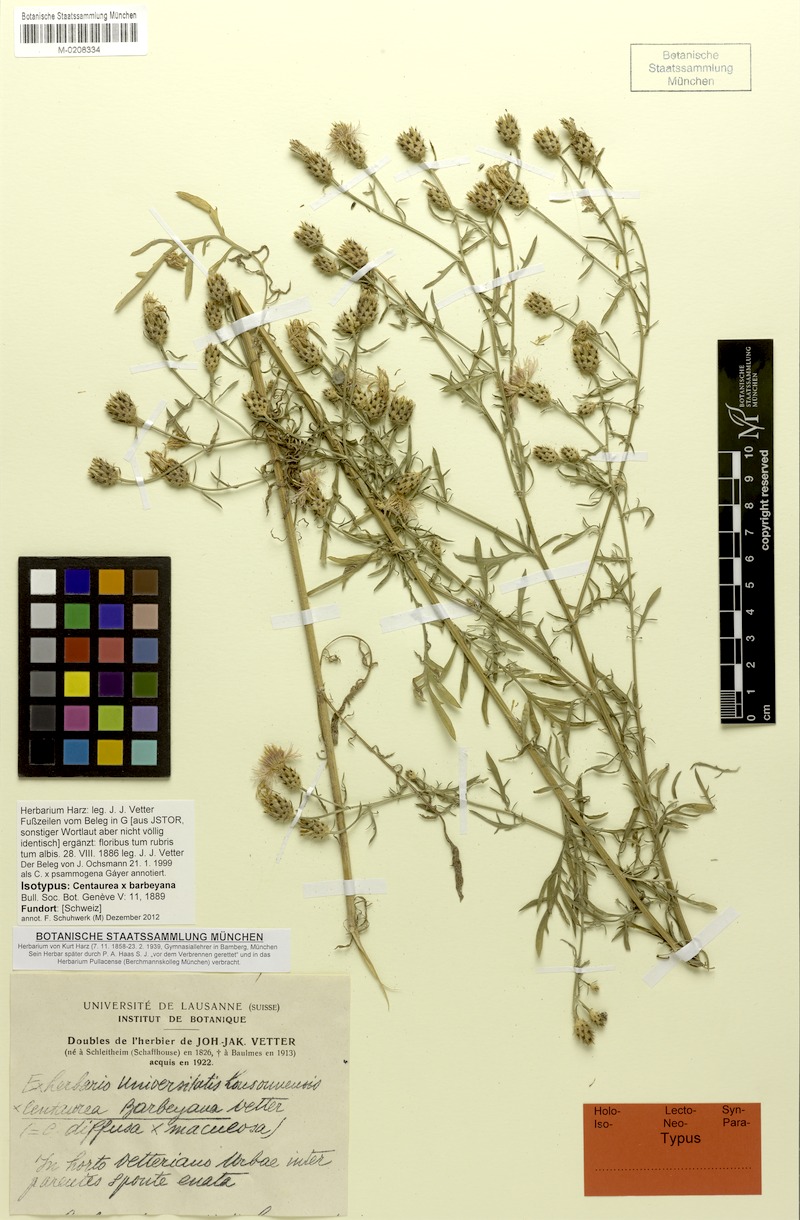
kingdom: Plantae
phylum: Tracheophyta
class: Magnoliopsida
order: Asterales
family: Asteraceae
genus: Centaurea
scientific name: Centaurea frayana
